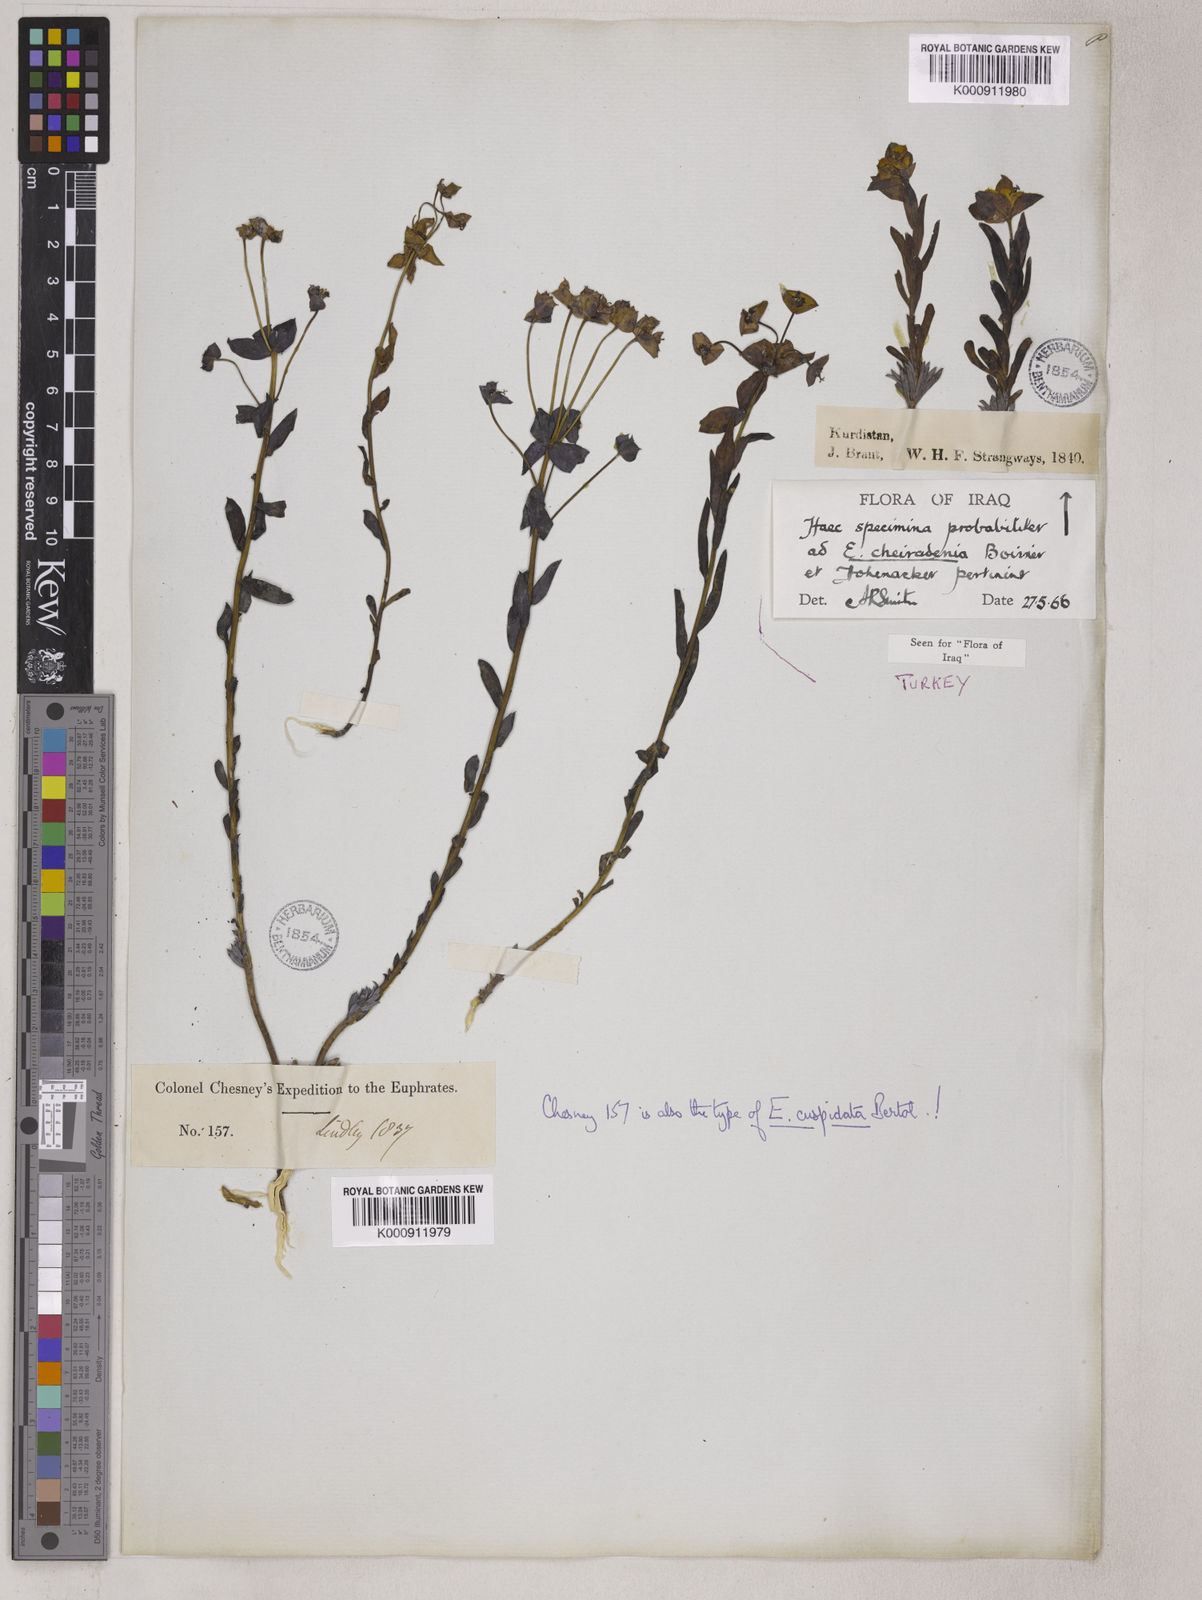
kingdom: Plantae
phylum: Tracheophyta
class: Magnoliopsida
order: Malpighiales
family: Euphorbiaceae
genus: Euphorbia
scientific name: Euphorbia cuspidata
